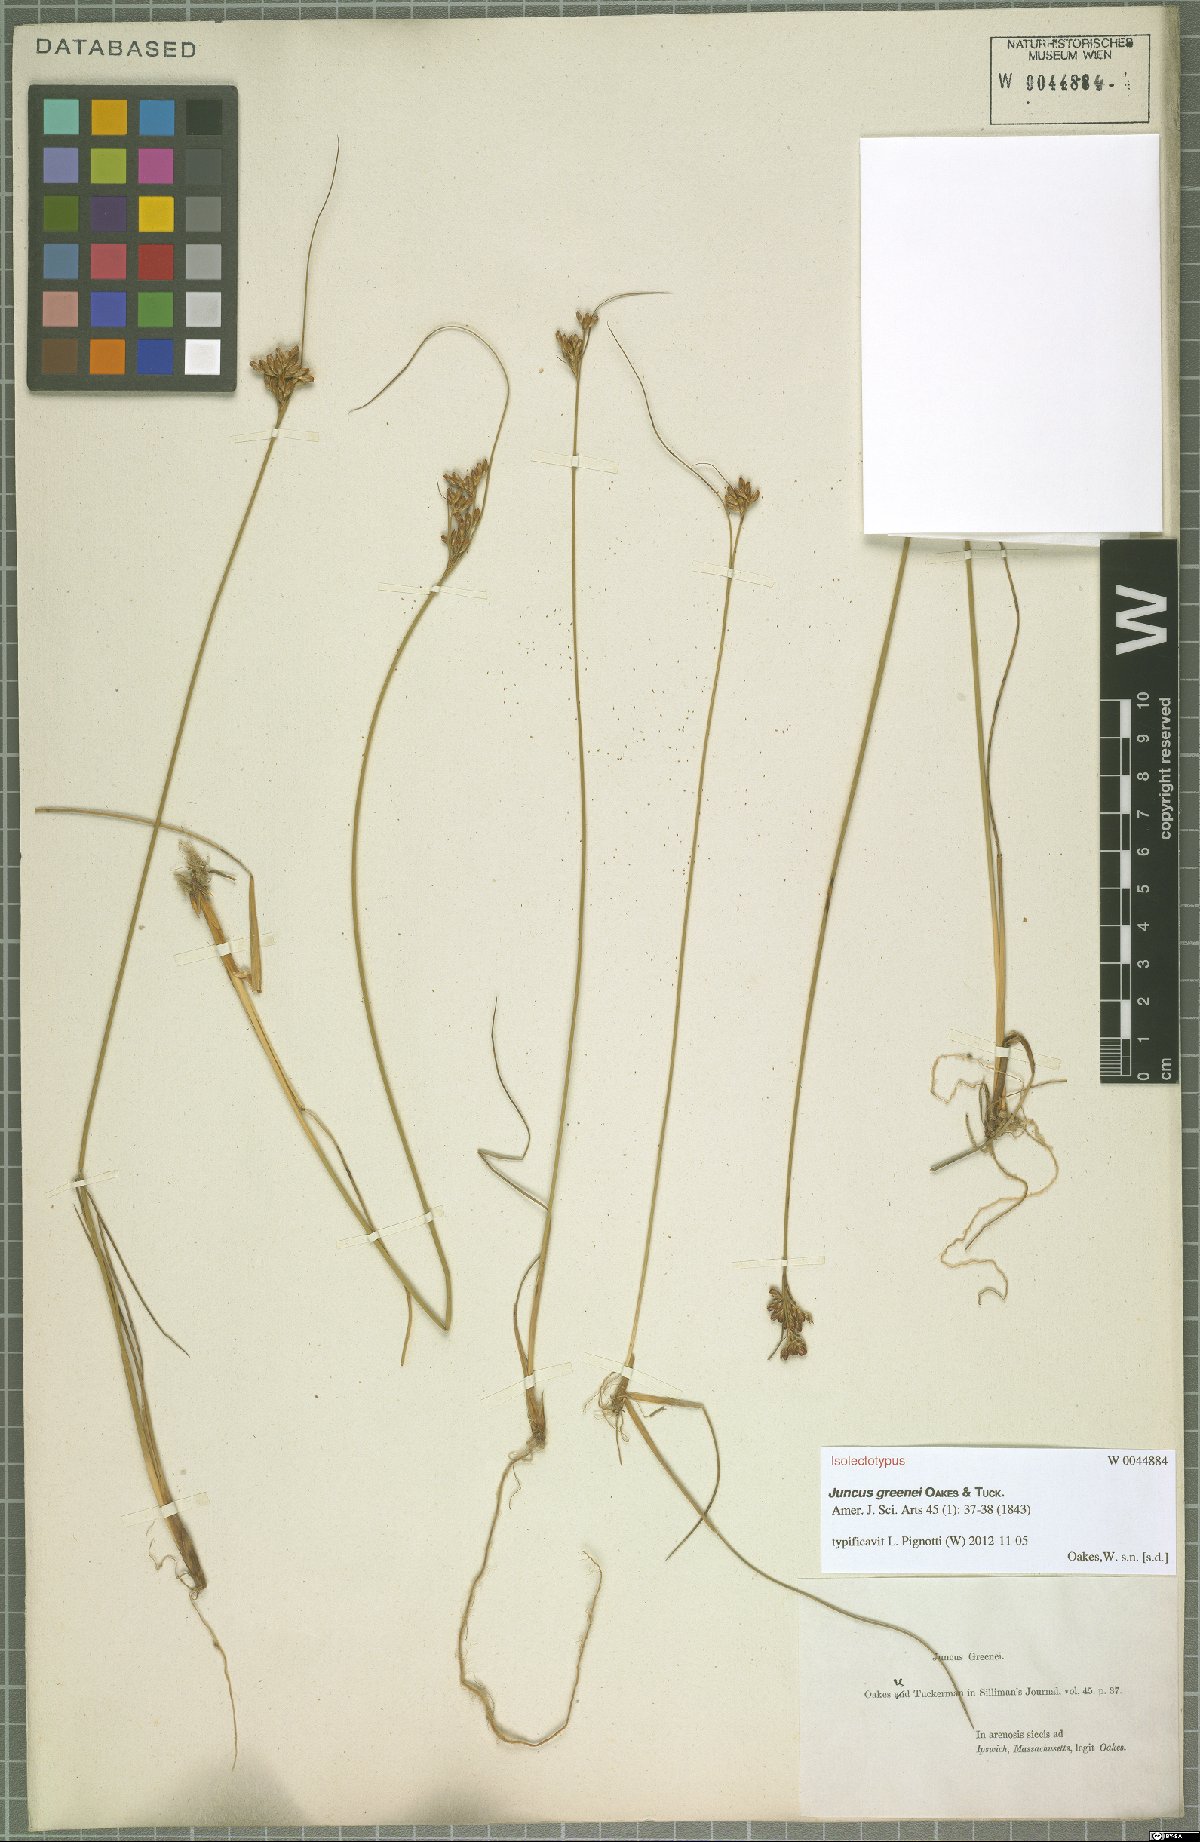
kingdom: Plantae
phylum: Tracheophyta
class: Liliopsida
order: Poales
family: Juncaceae
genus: Juncus
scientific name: Juncus greenei
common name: Greene's rush
